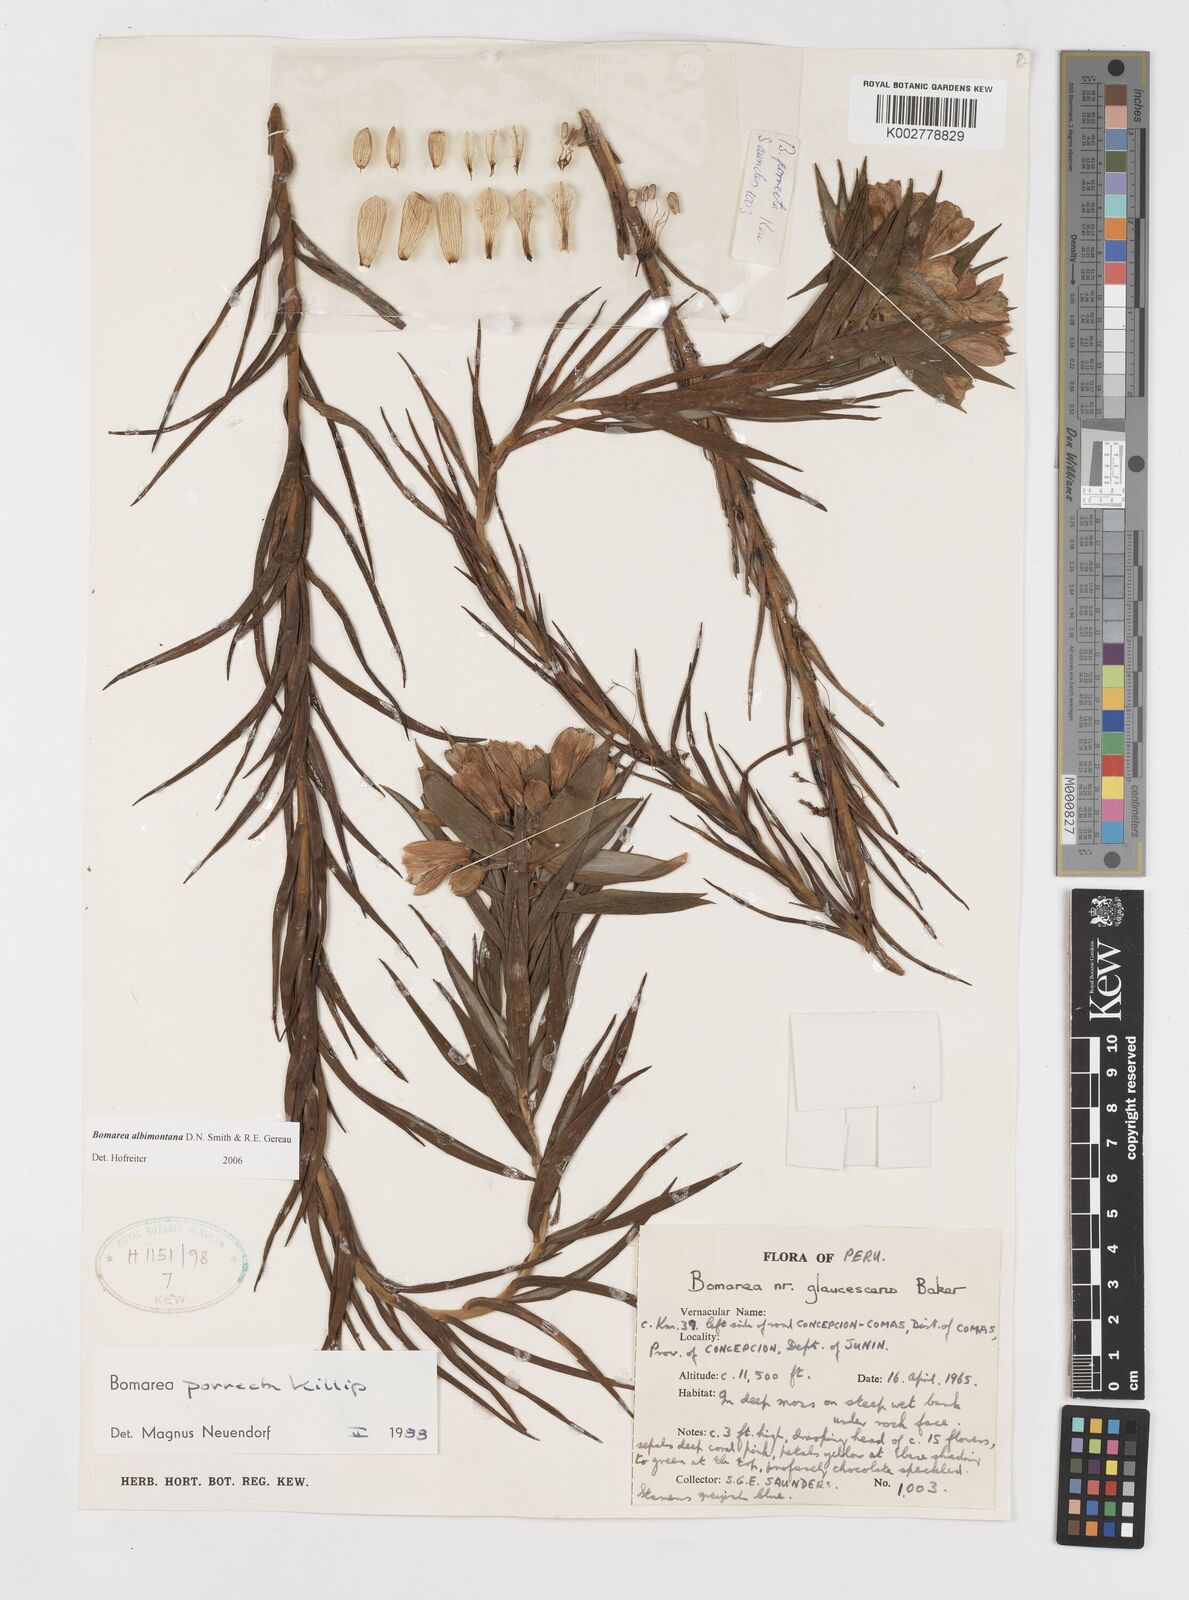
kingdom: Plantae
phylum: Tracheophyta
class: Liliopsida
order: Liliales
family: Alstroemeriaceae
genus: Bomarea
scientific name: Bomarea albimontana
